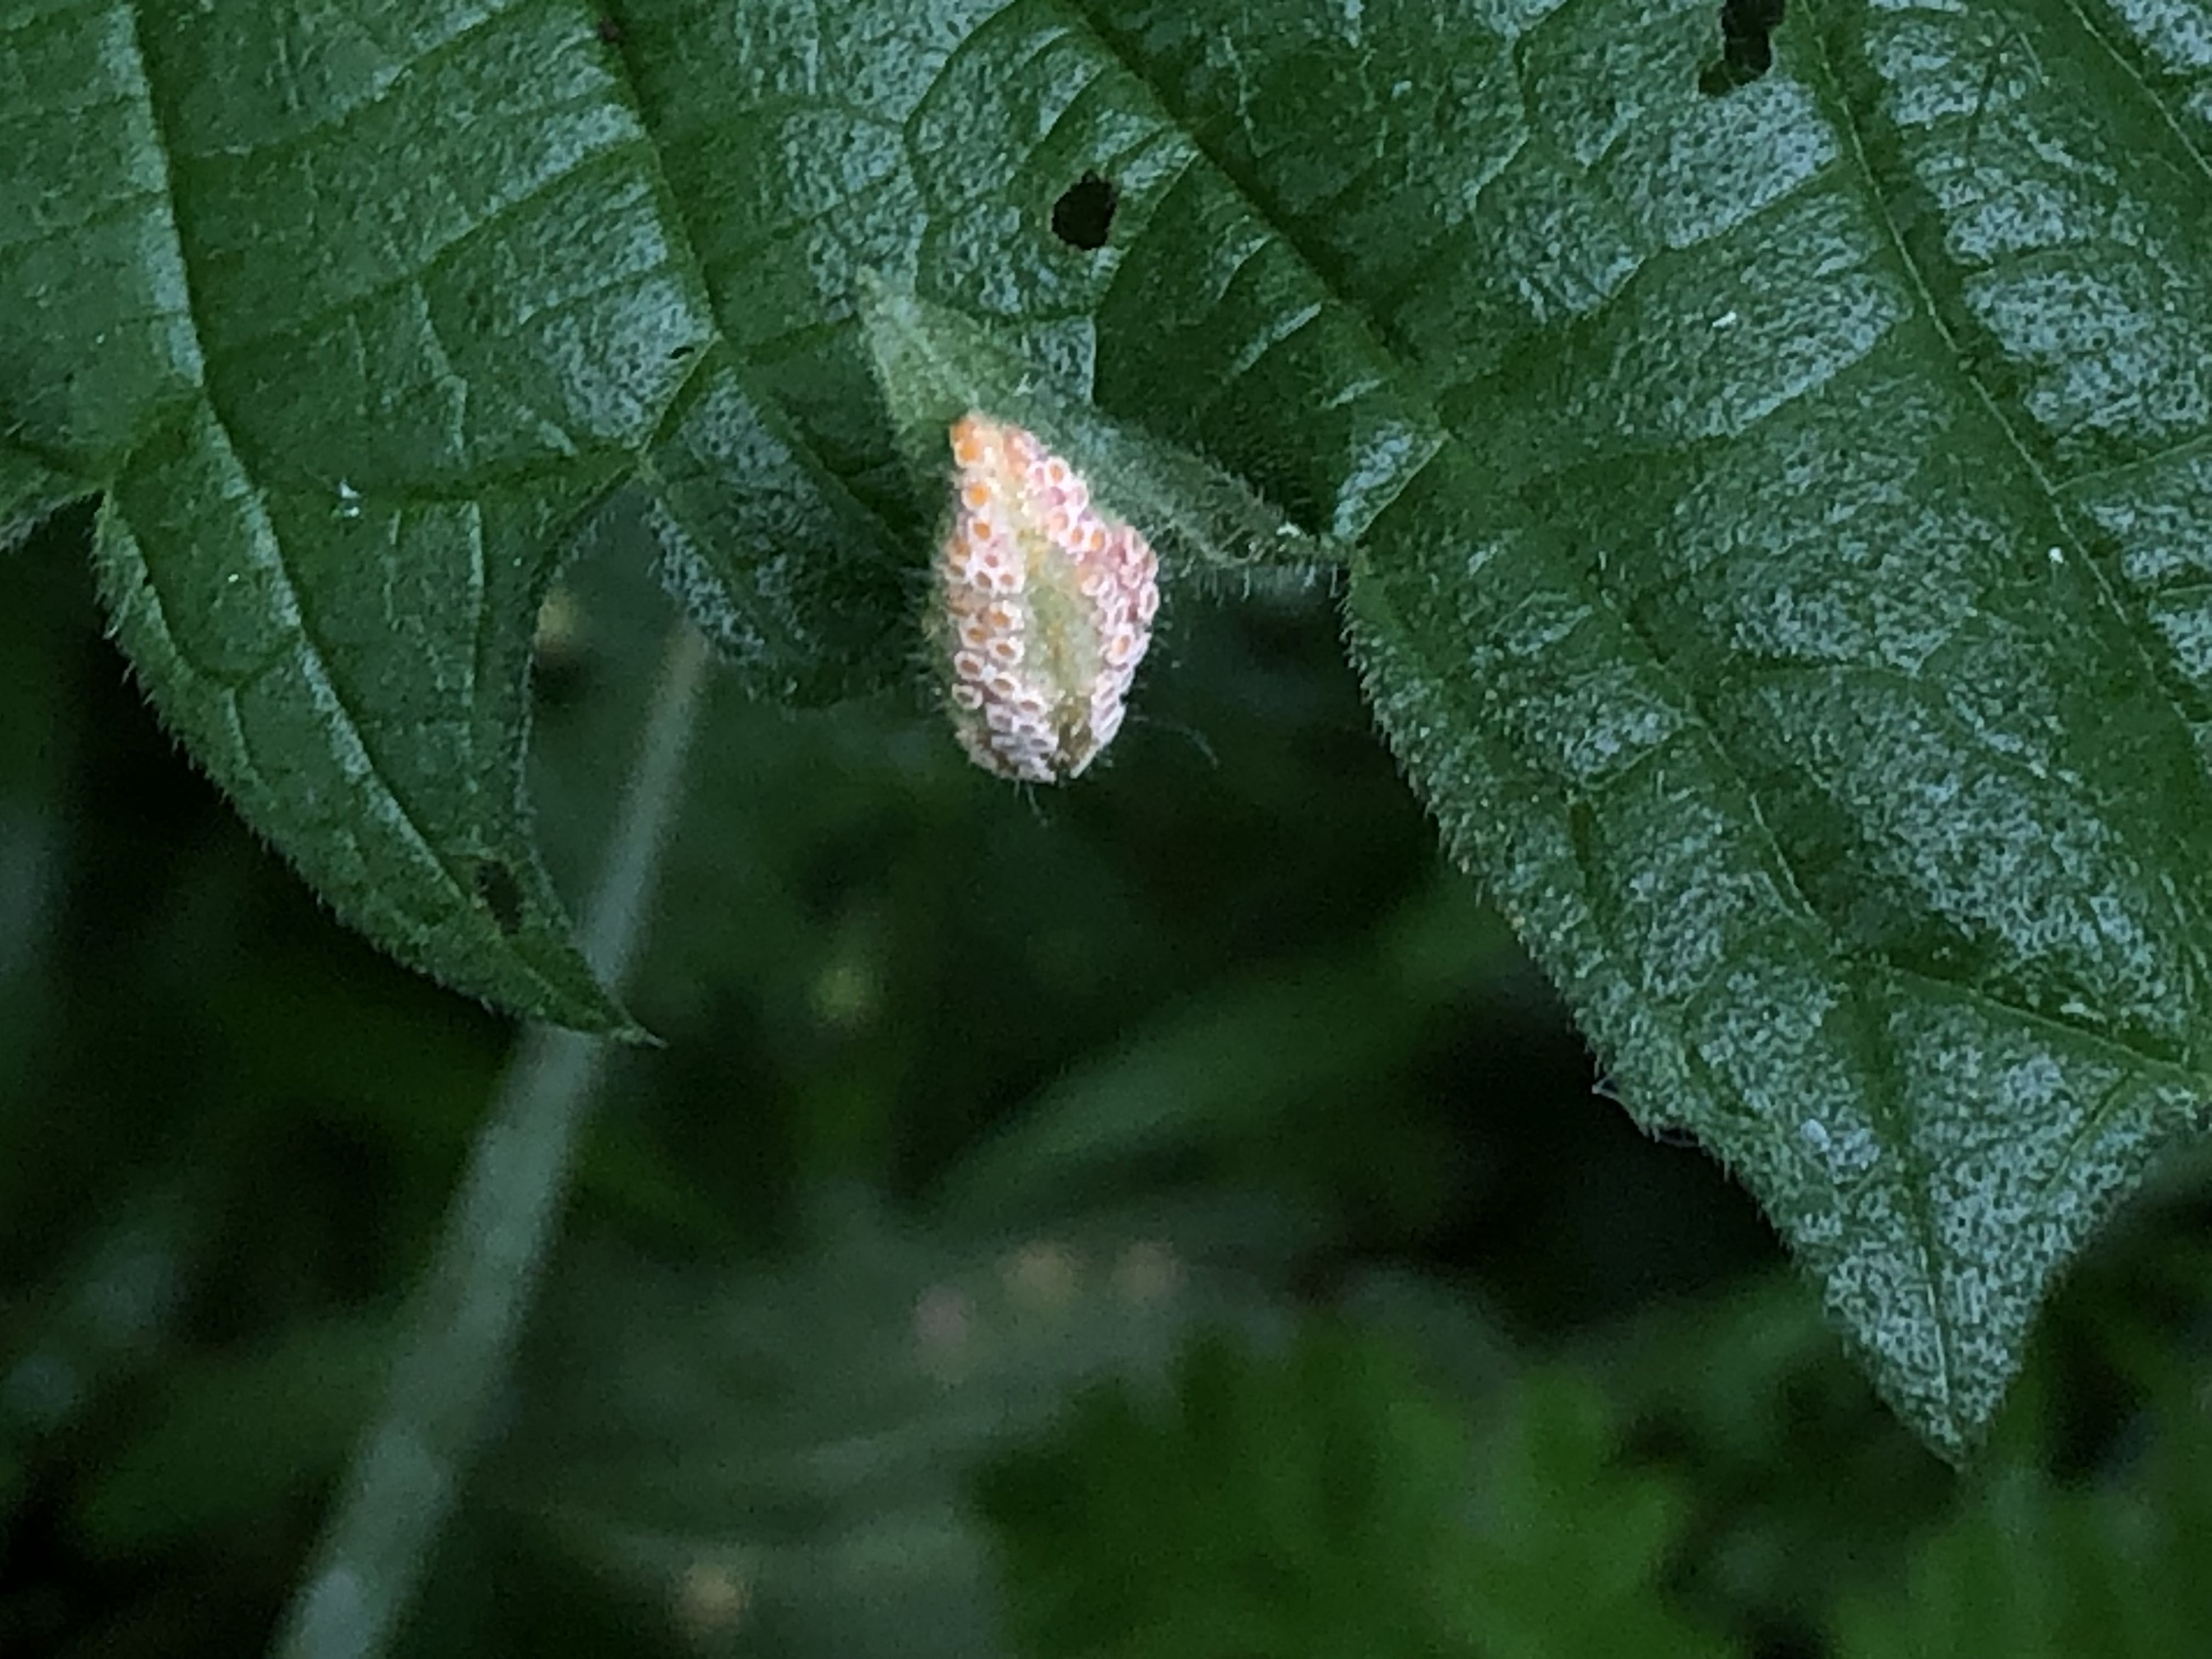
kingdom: Fungi
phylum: Basidiomycota
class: Pucciniomycetes
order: Pucciniales
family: Pucciniaceae
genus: Puccinia
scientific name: Puccinia urticata
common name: nældegalle-tvecellerust
